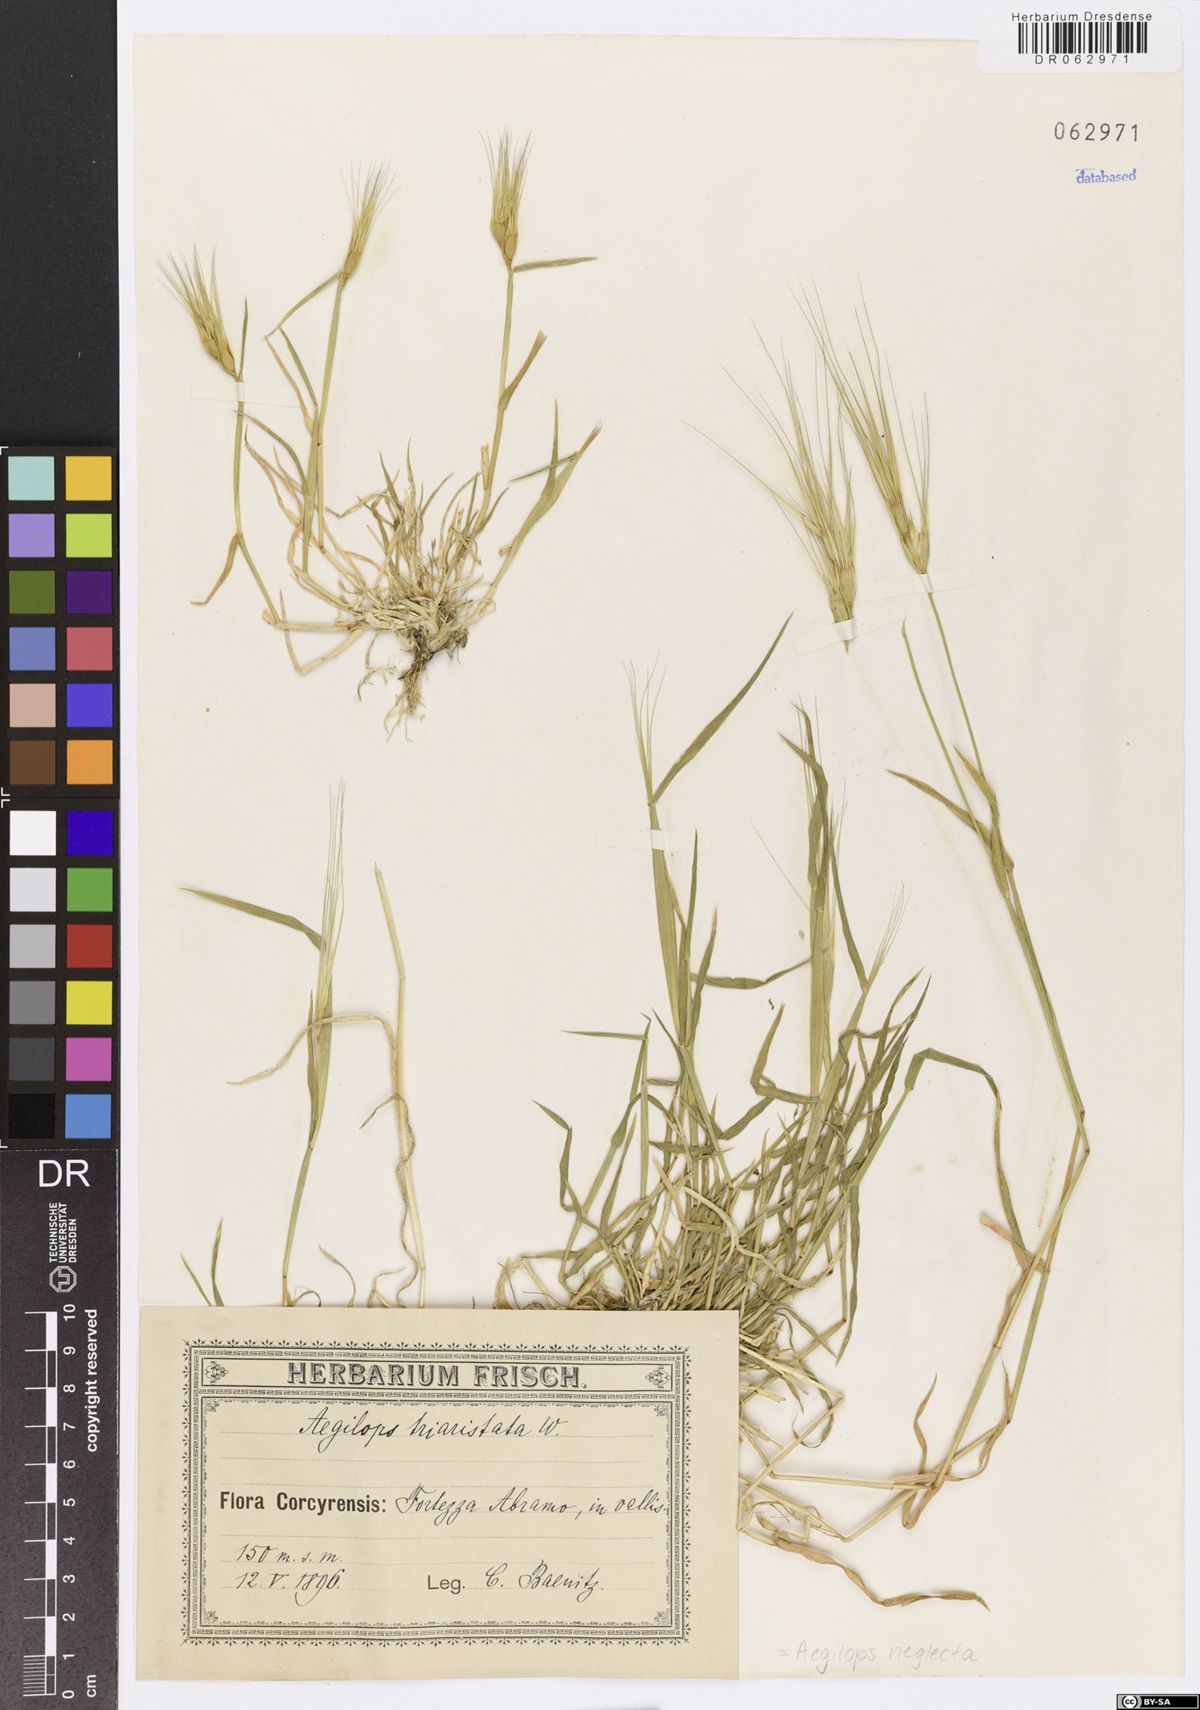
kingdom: Plantae
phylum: Tracheophyta
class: Liliopsida
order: Poales
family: Poaceae
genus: Aegilops
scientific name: Aegilops neglecta
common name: Three-awn goat grass
